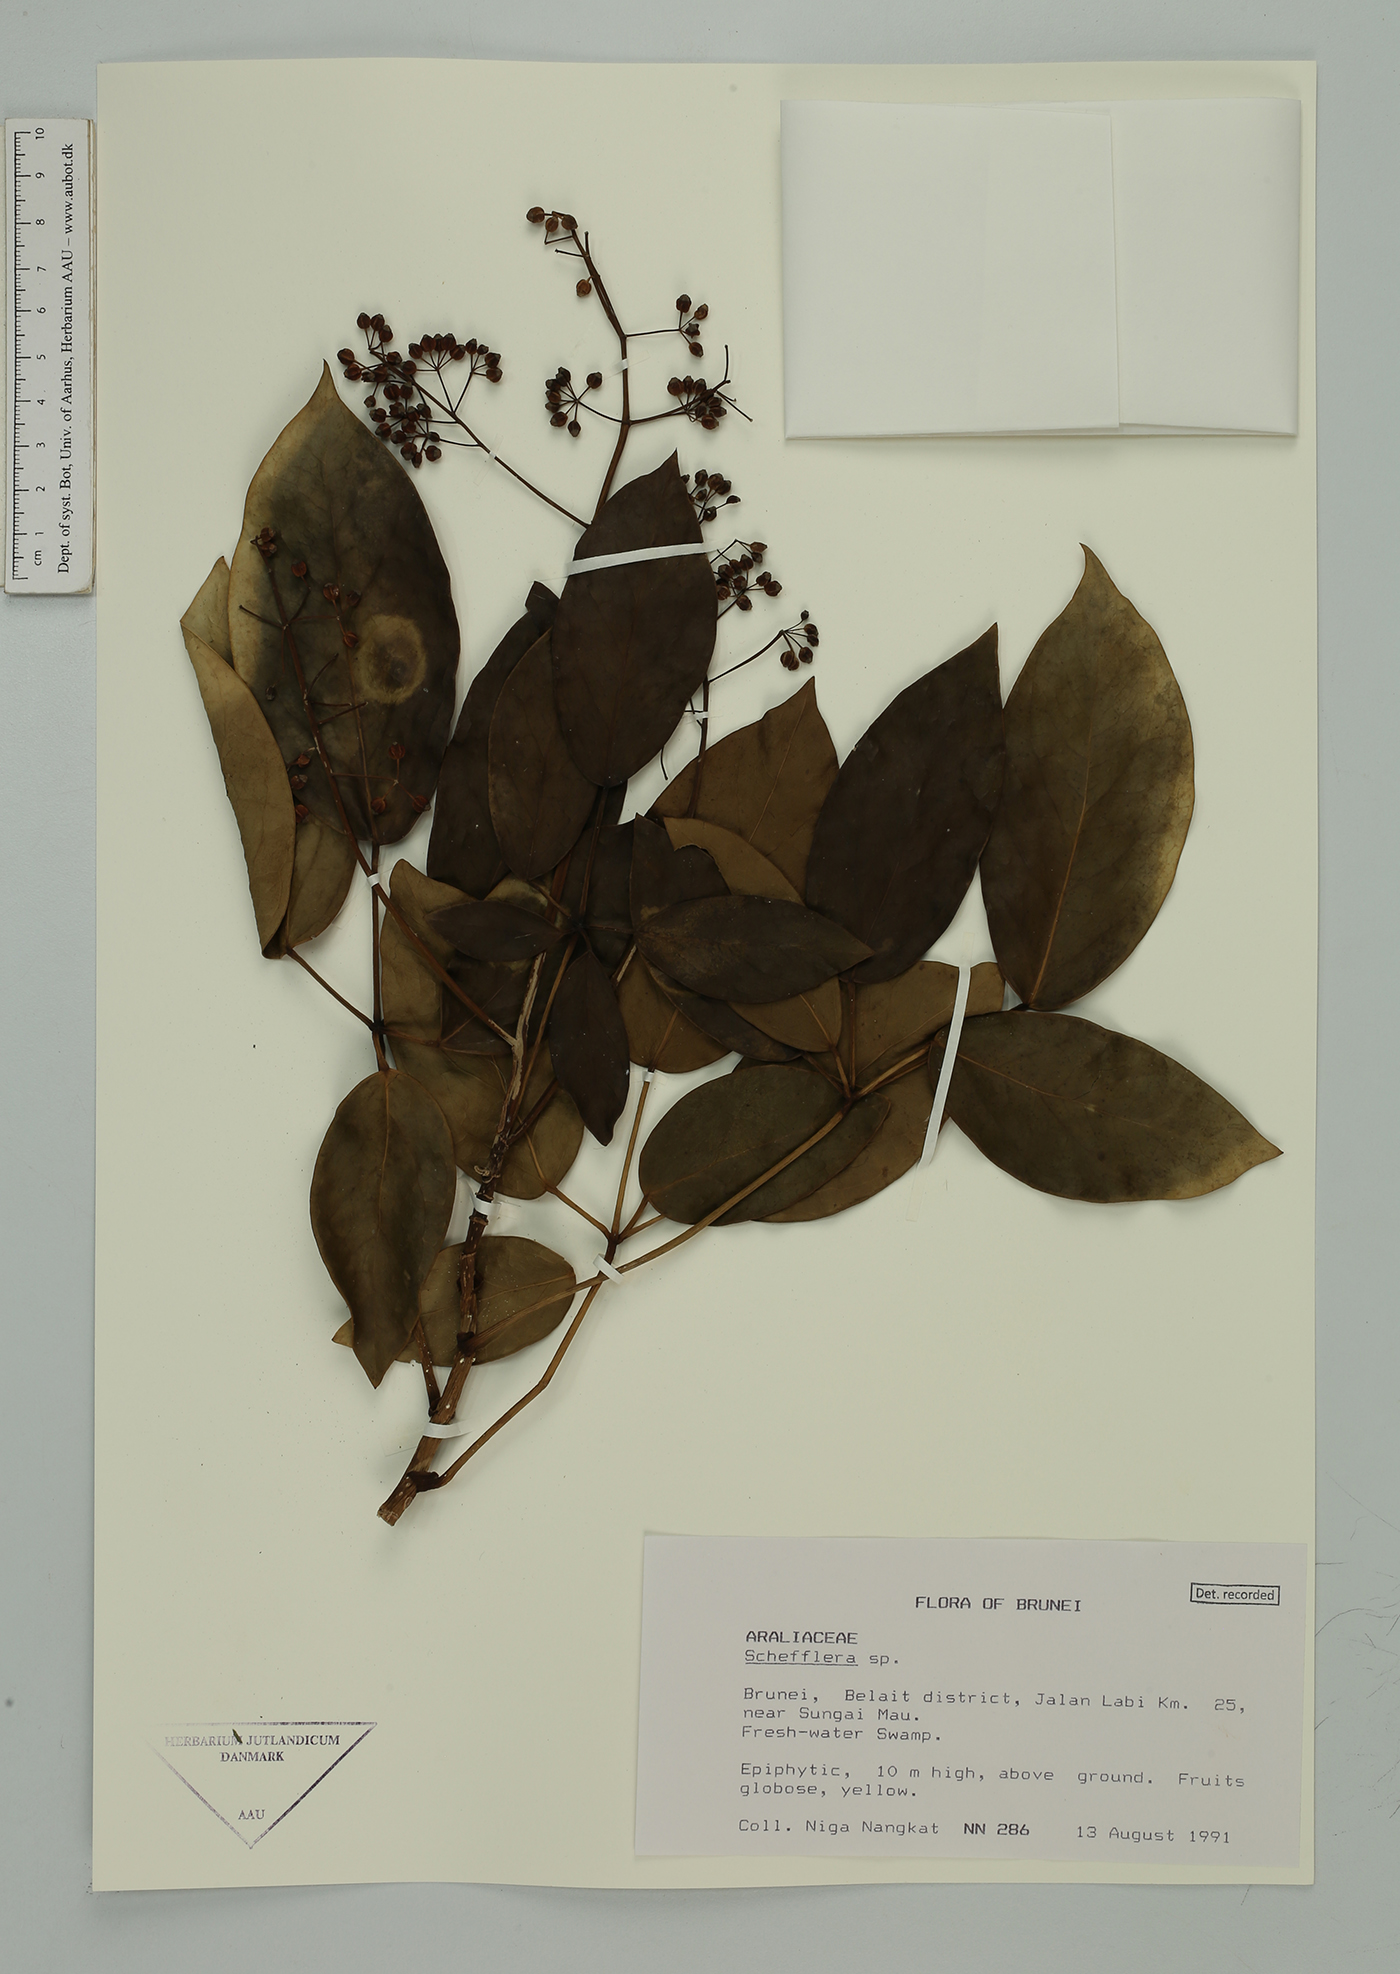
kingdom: Plantae
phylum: Tracheophyta
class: Magnoliopsida
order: Apiales
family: Araliaceae
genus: Schefflera
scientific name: Schefflera
